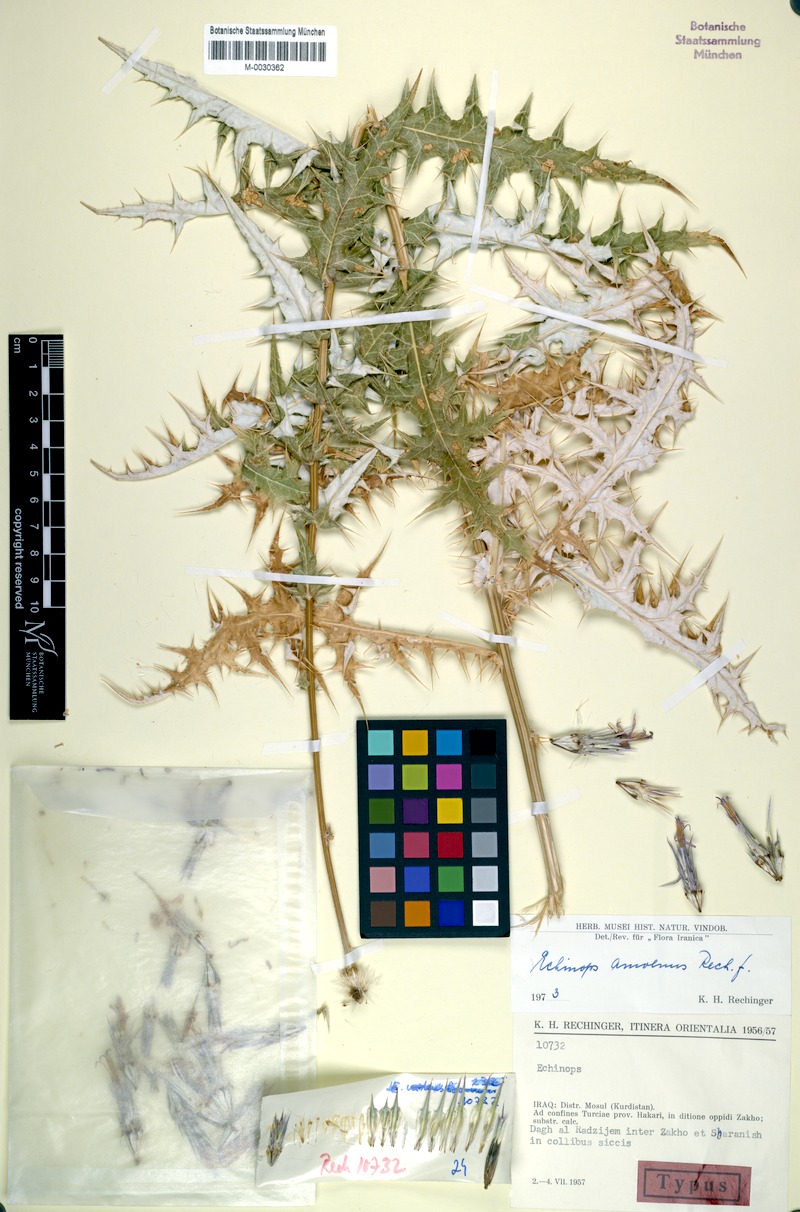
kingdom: Plantae
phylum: Tracheophyta
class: Magnoliopsida
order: Asterales
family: Asteraceae
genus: Echinops
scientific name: Echinops amoenus
